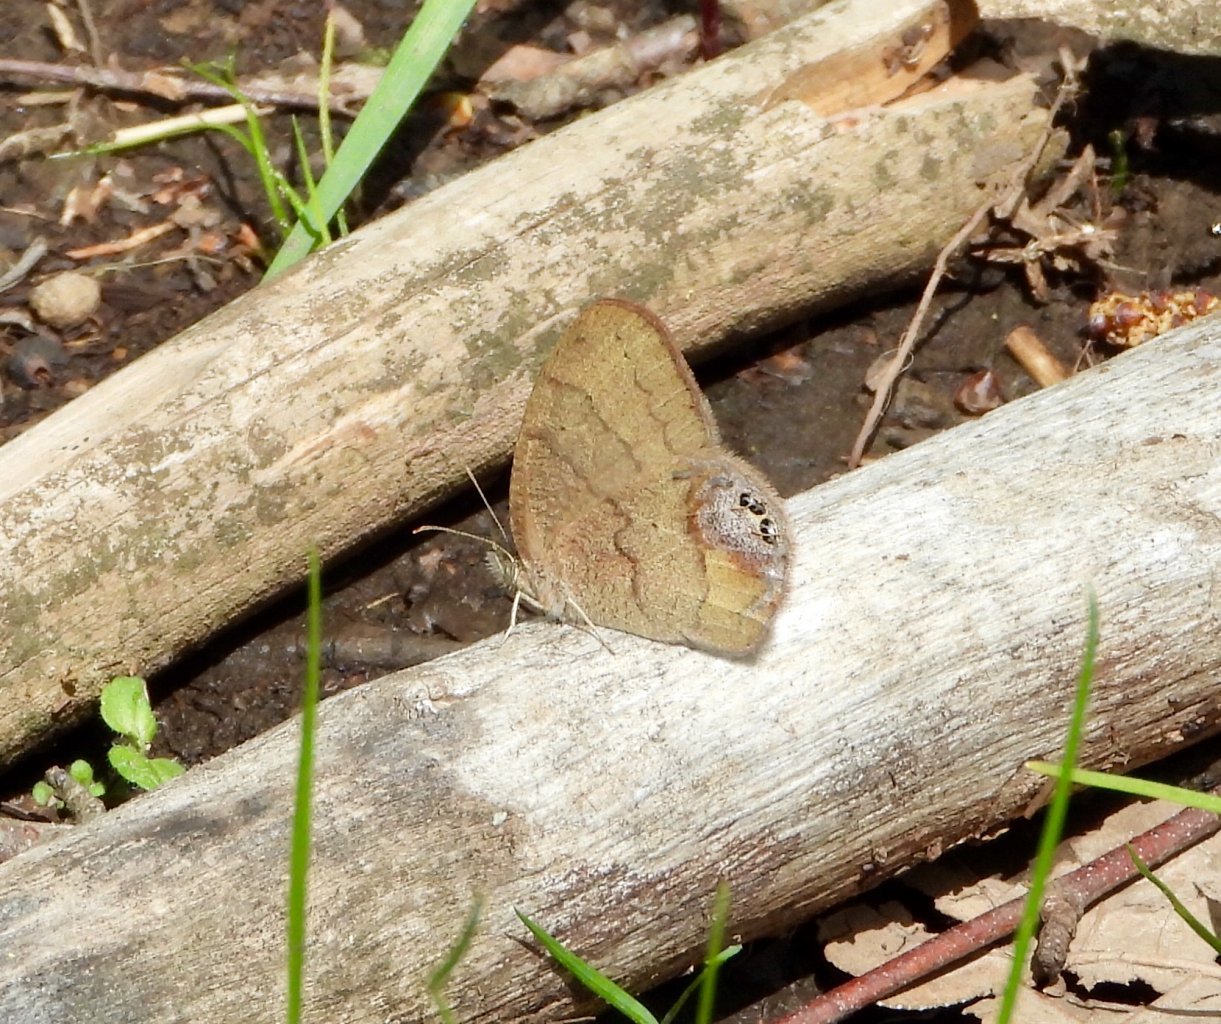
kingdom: Animalia
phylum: Arthropoda
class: Insecta
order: Lepidoptera
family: Nymphalidae
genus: Euptychia
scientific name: Euptychia cornelius
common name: Gemmed Satyr
